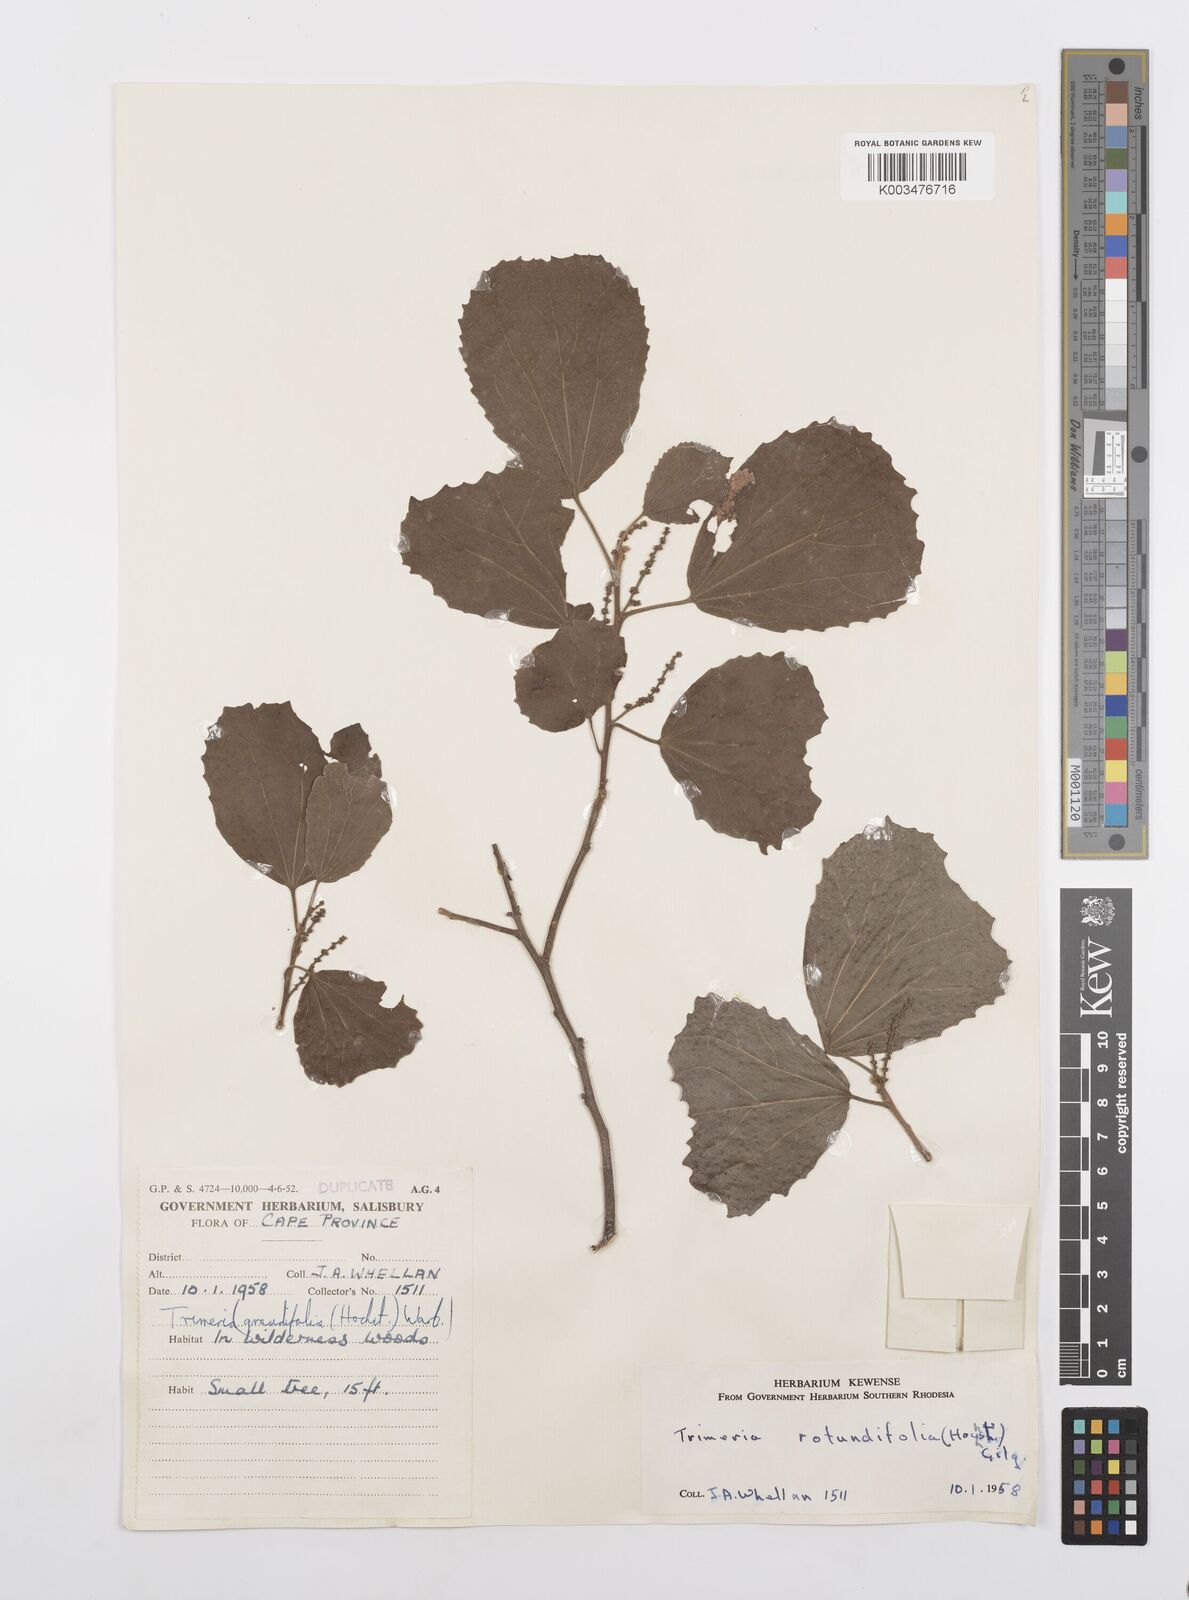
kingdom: Plantae
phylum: Tracheophyta
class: Magnoliopsida
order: Malpighiales
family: Salicaceae
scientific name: Salicaceae
